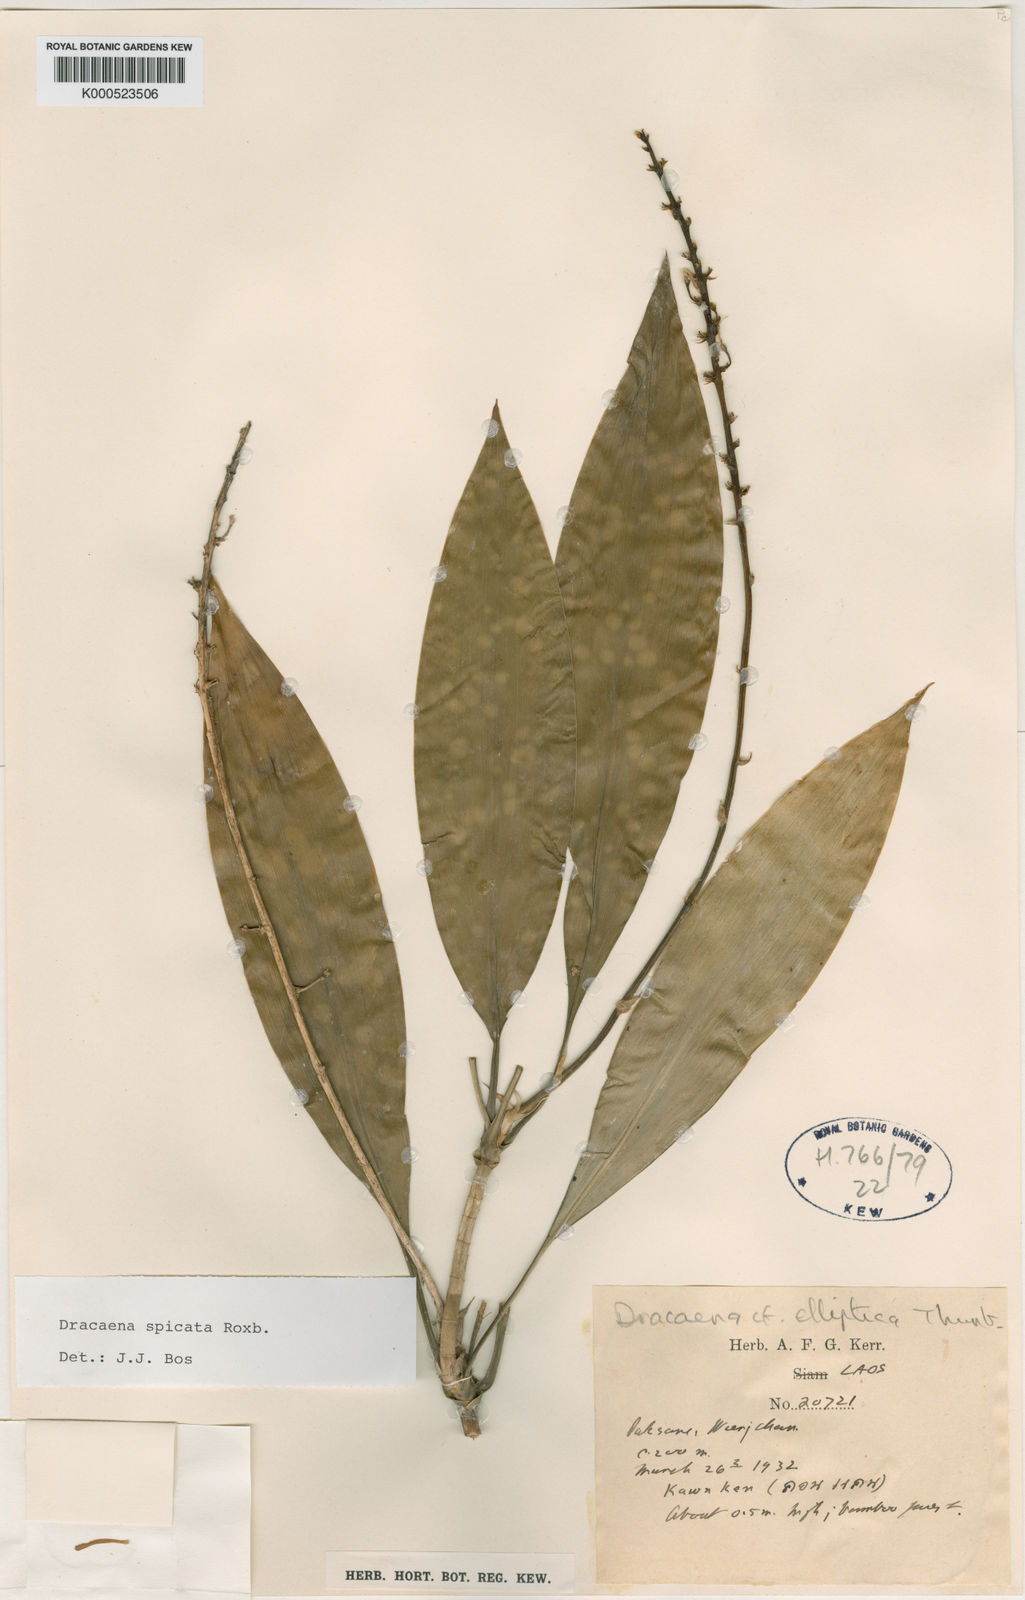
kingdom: Plantae
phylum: Tracheophyta
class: Liliopsida
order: Asparagales
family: Asparagaceae
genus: Dracaena
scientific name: Dracaena spicata
